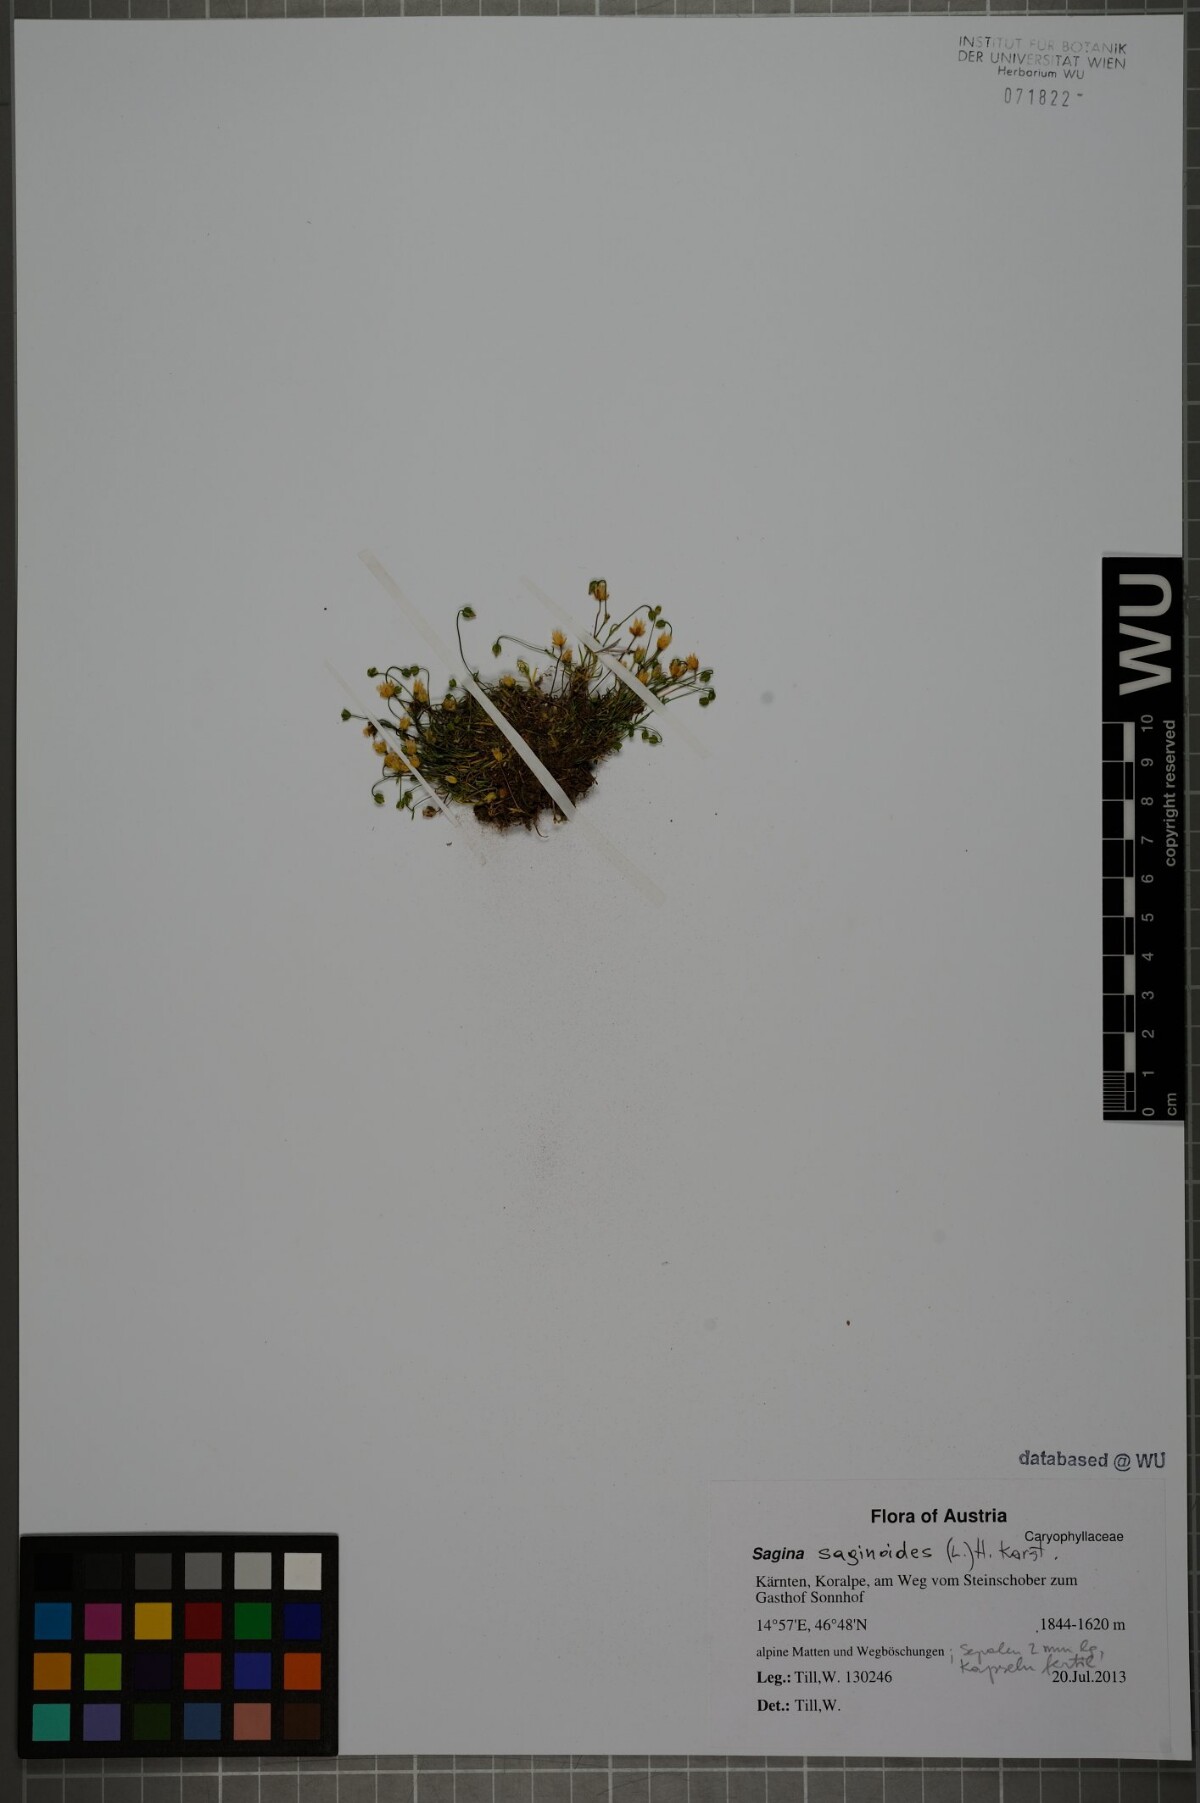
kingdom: Plantae
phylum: Tracheophyta
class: Magnoliopsida
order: Caryophyllales
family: Caryophyllaceae
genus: Sagina
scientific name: Sagina saginoides
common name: Alpine pearlwort
